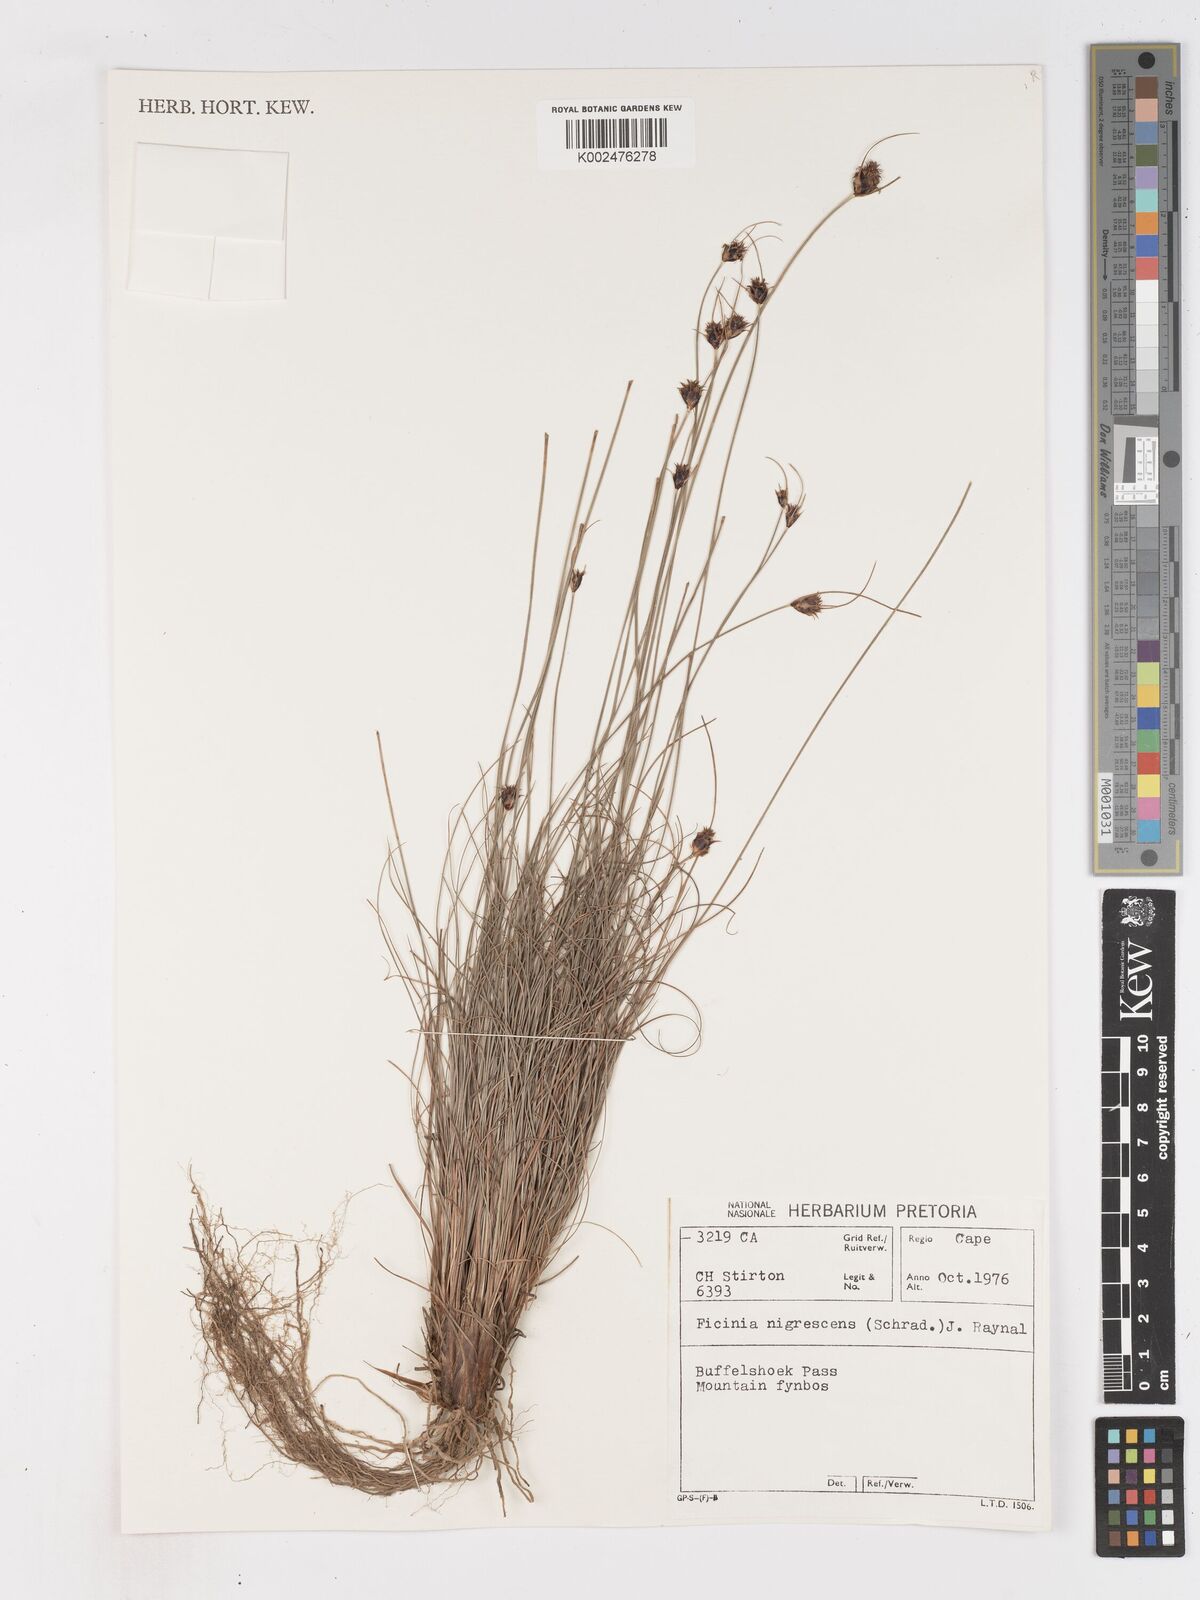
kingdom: Plantae
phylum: Tracheophyta
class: Liliopsida
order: Poales
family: Cyperaceae
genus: Ficinia
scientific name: Ficinia nigrescens
